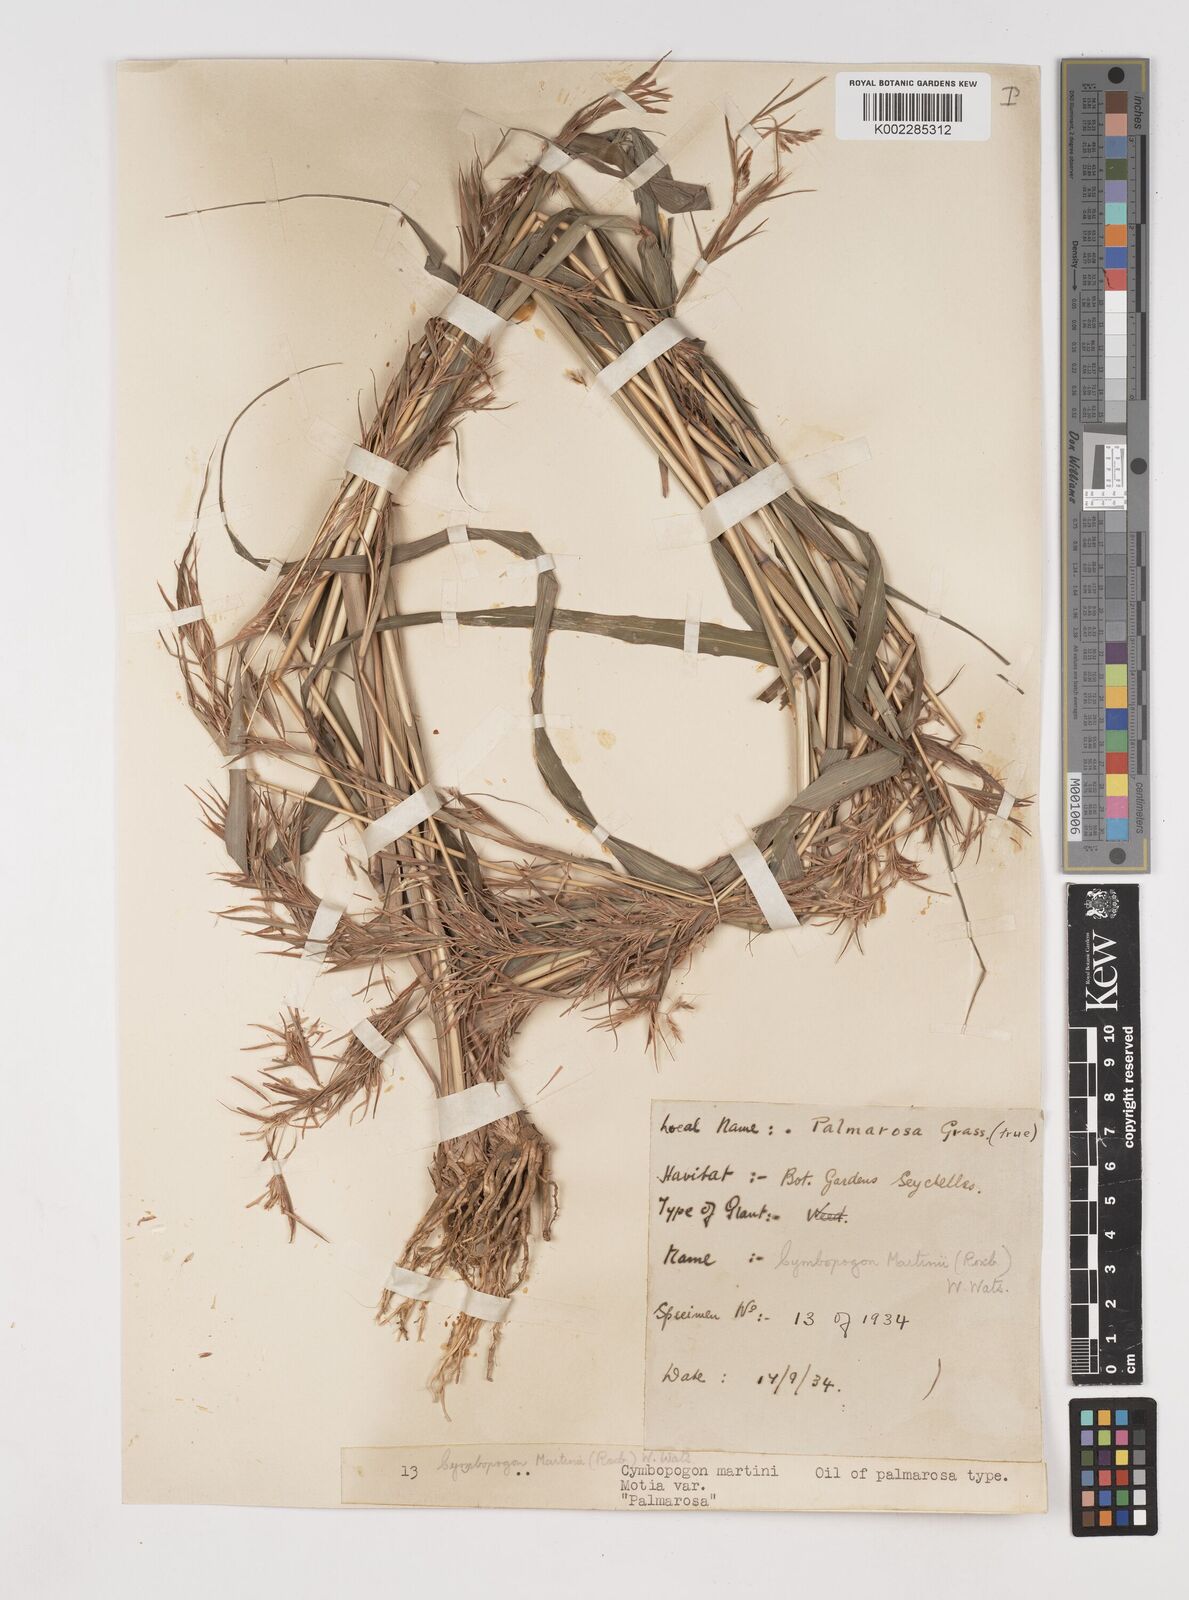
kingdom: Plantae
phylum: Tracheophyta
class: Liliopsida
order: Poales
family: Poaceae
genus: Cymbopogon
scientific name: Cymbopogon martini
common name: Ginger grass
